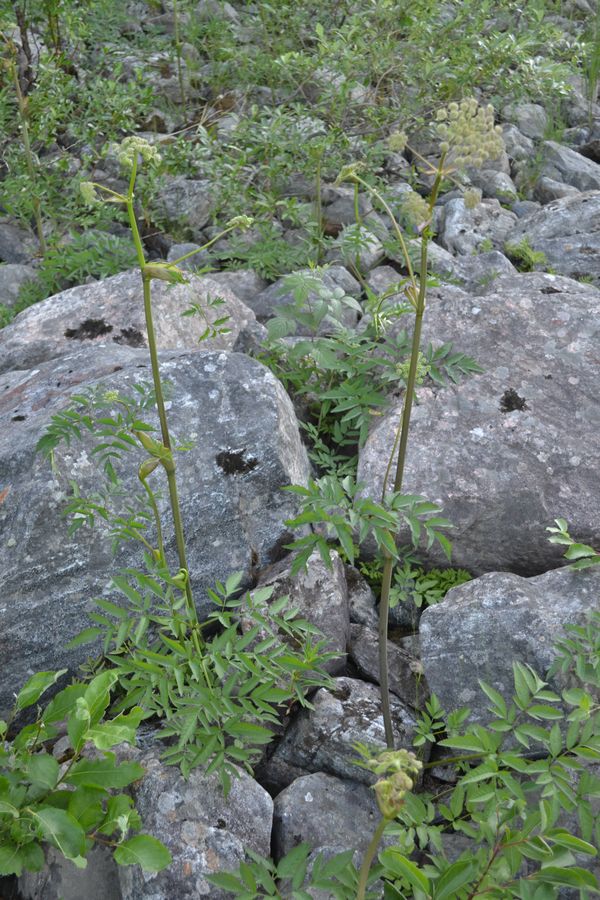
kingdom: Plantae
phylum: Tracheophyta
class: Magnoliopsida
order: Apiales
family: Apiaceae
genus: Angelica
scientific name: Angelica sylvestris
